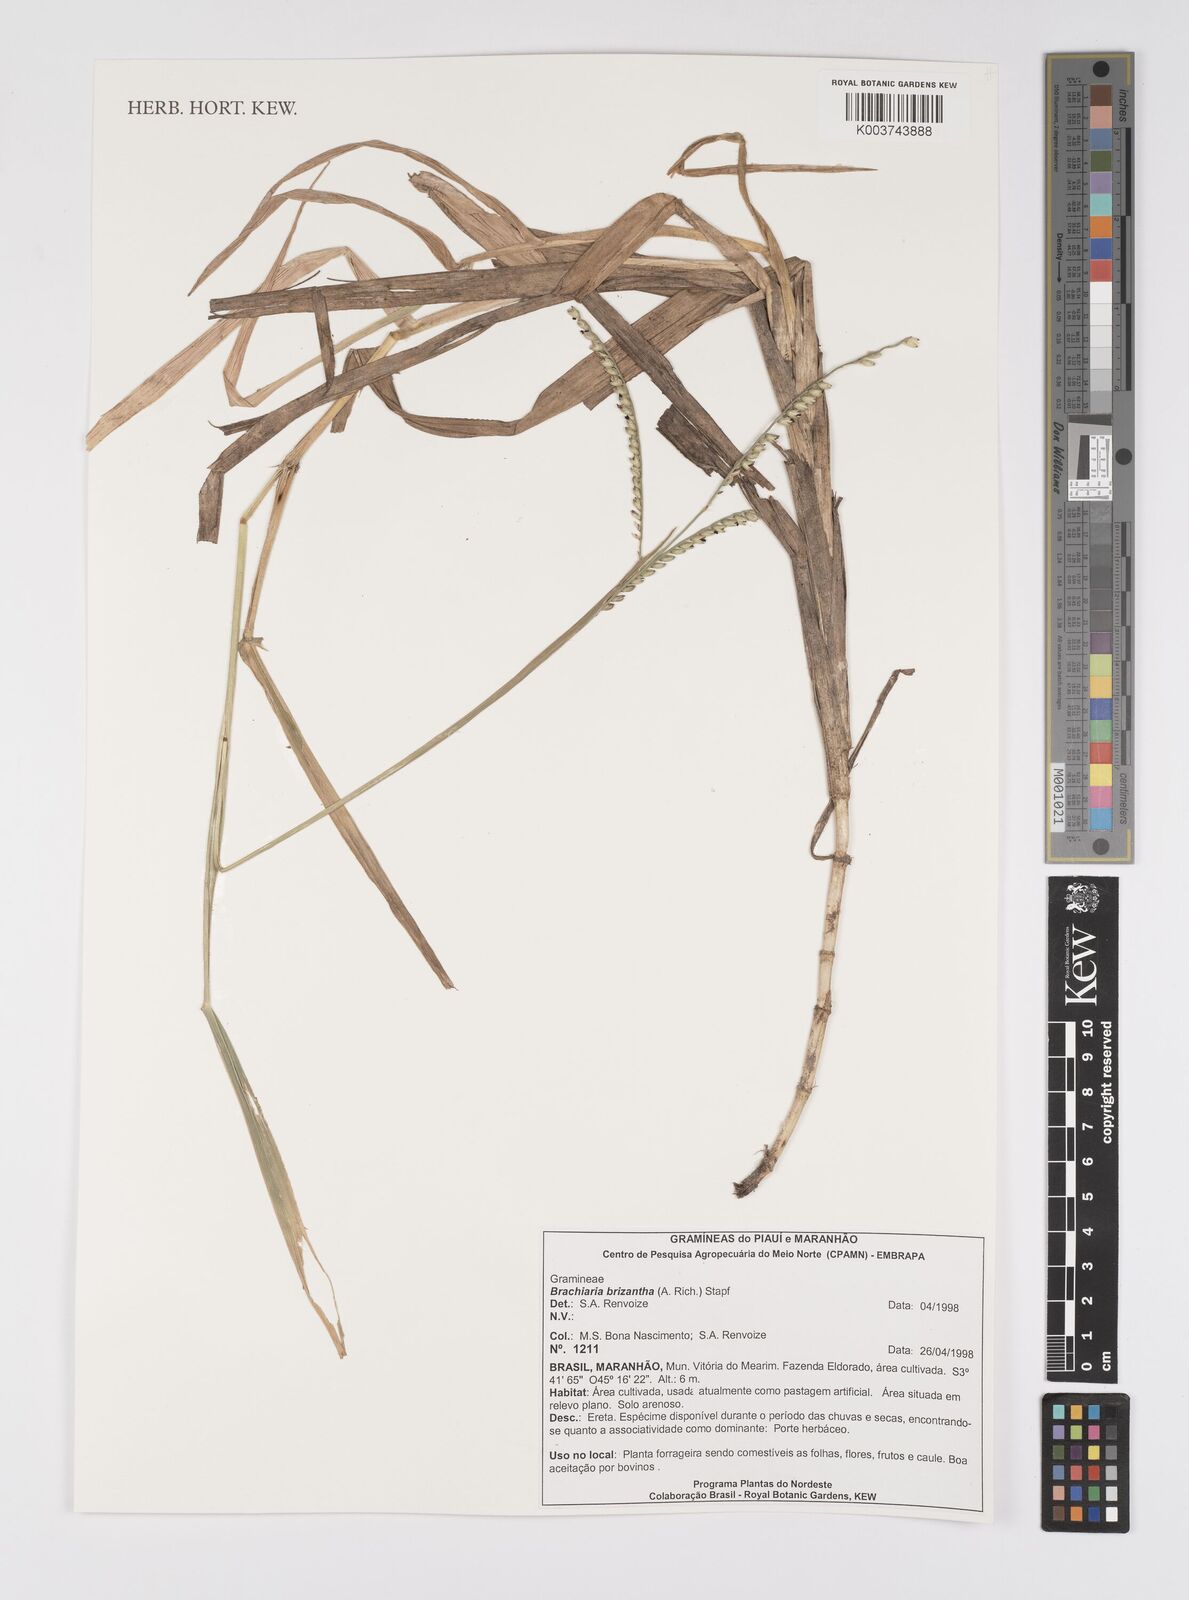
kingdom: Plantae
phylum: Tracheophyta
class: Liliopsida
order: Poales
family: Poaceae
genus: Urochloa
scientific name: Urochloa brizantha
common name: Palisade signalgrass
